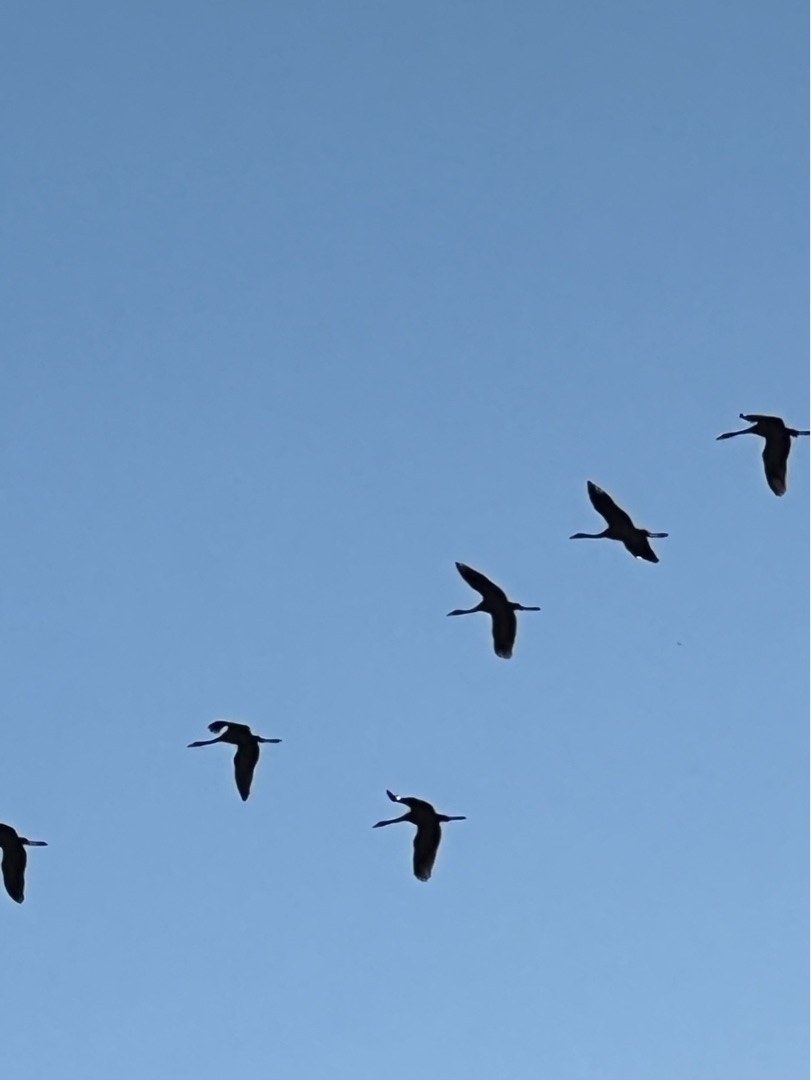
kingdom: Animalia
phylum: Chordata
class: Aves
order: Gruiformes
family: Gruidae
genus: Grus
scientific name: Grus grus
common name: Trane
